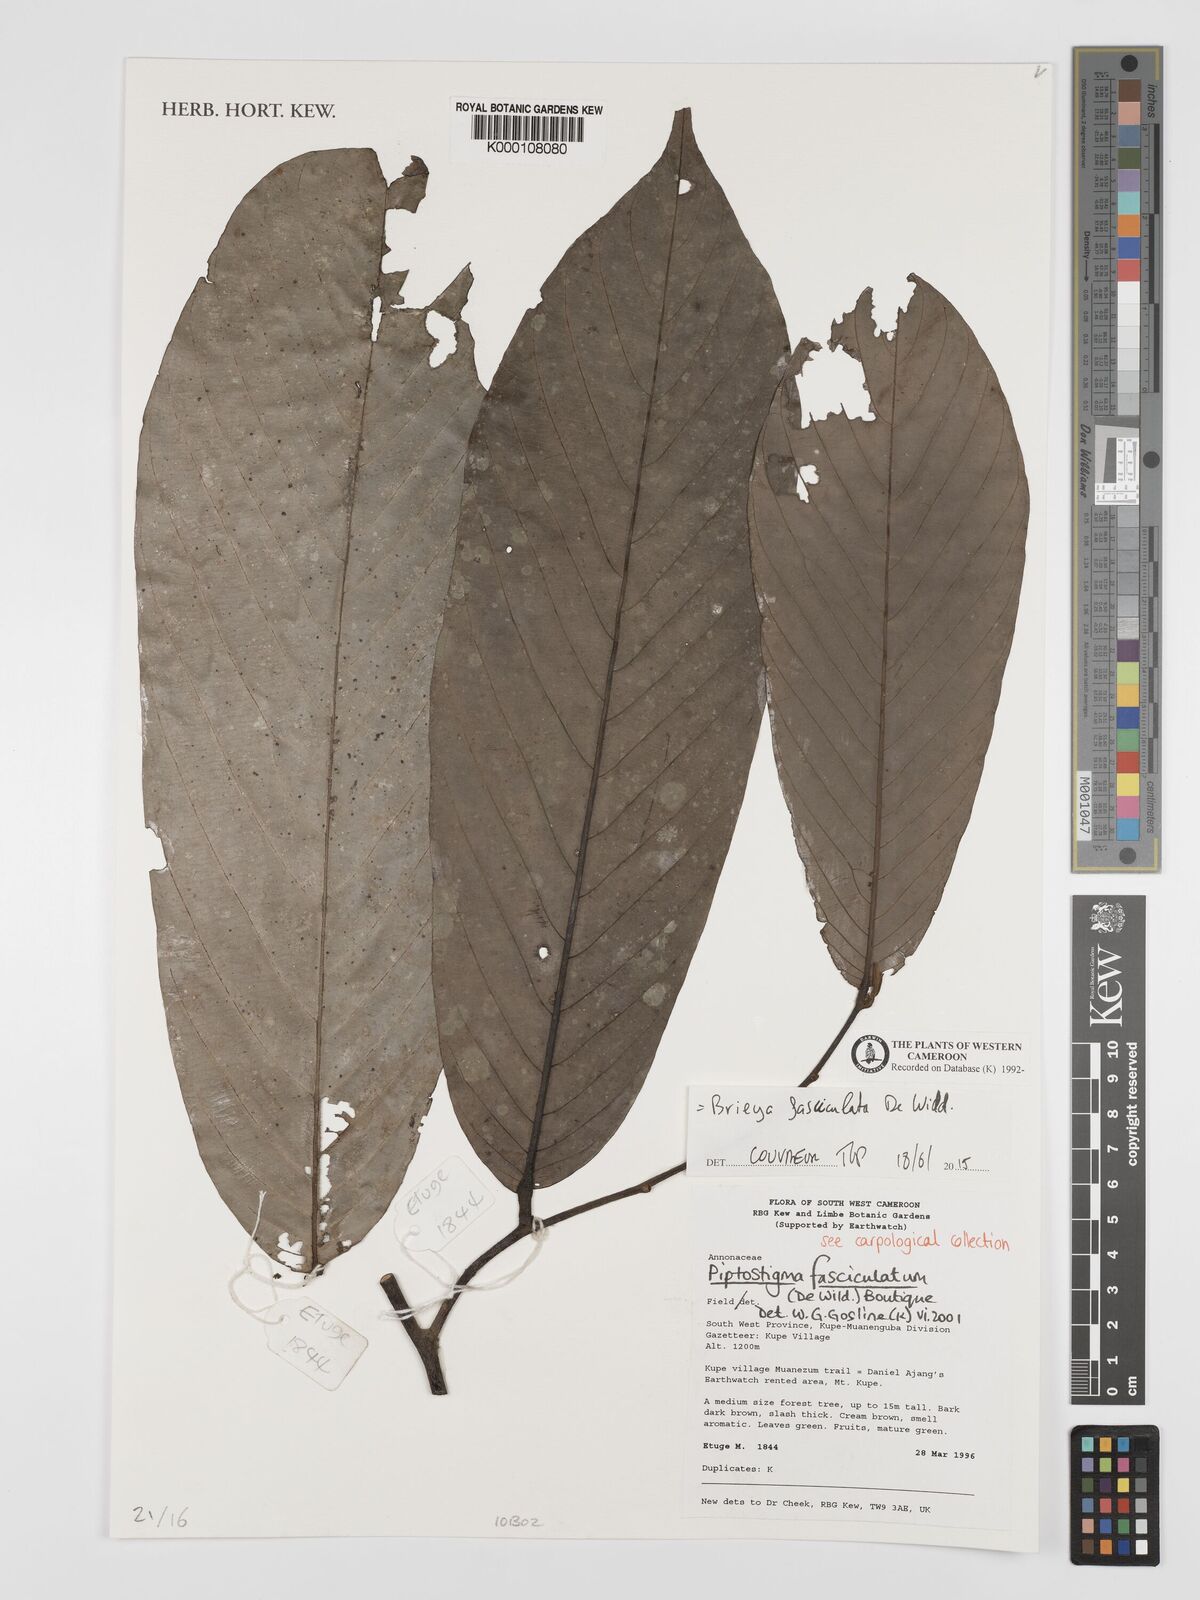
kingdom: Plantae
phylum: Tracheophyta
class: Magnoliopsida
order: Magnoliales
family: Annonaceae
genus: Piptostigma
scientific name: Piptostigma fasciculatum
